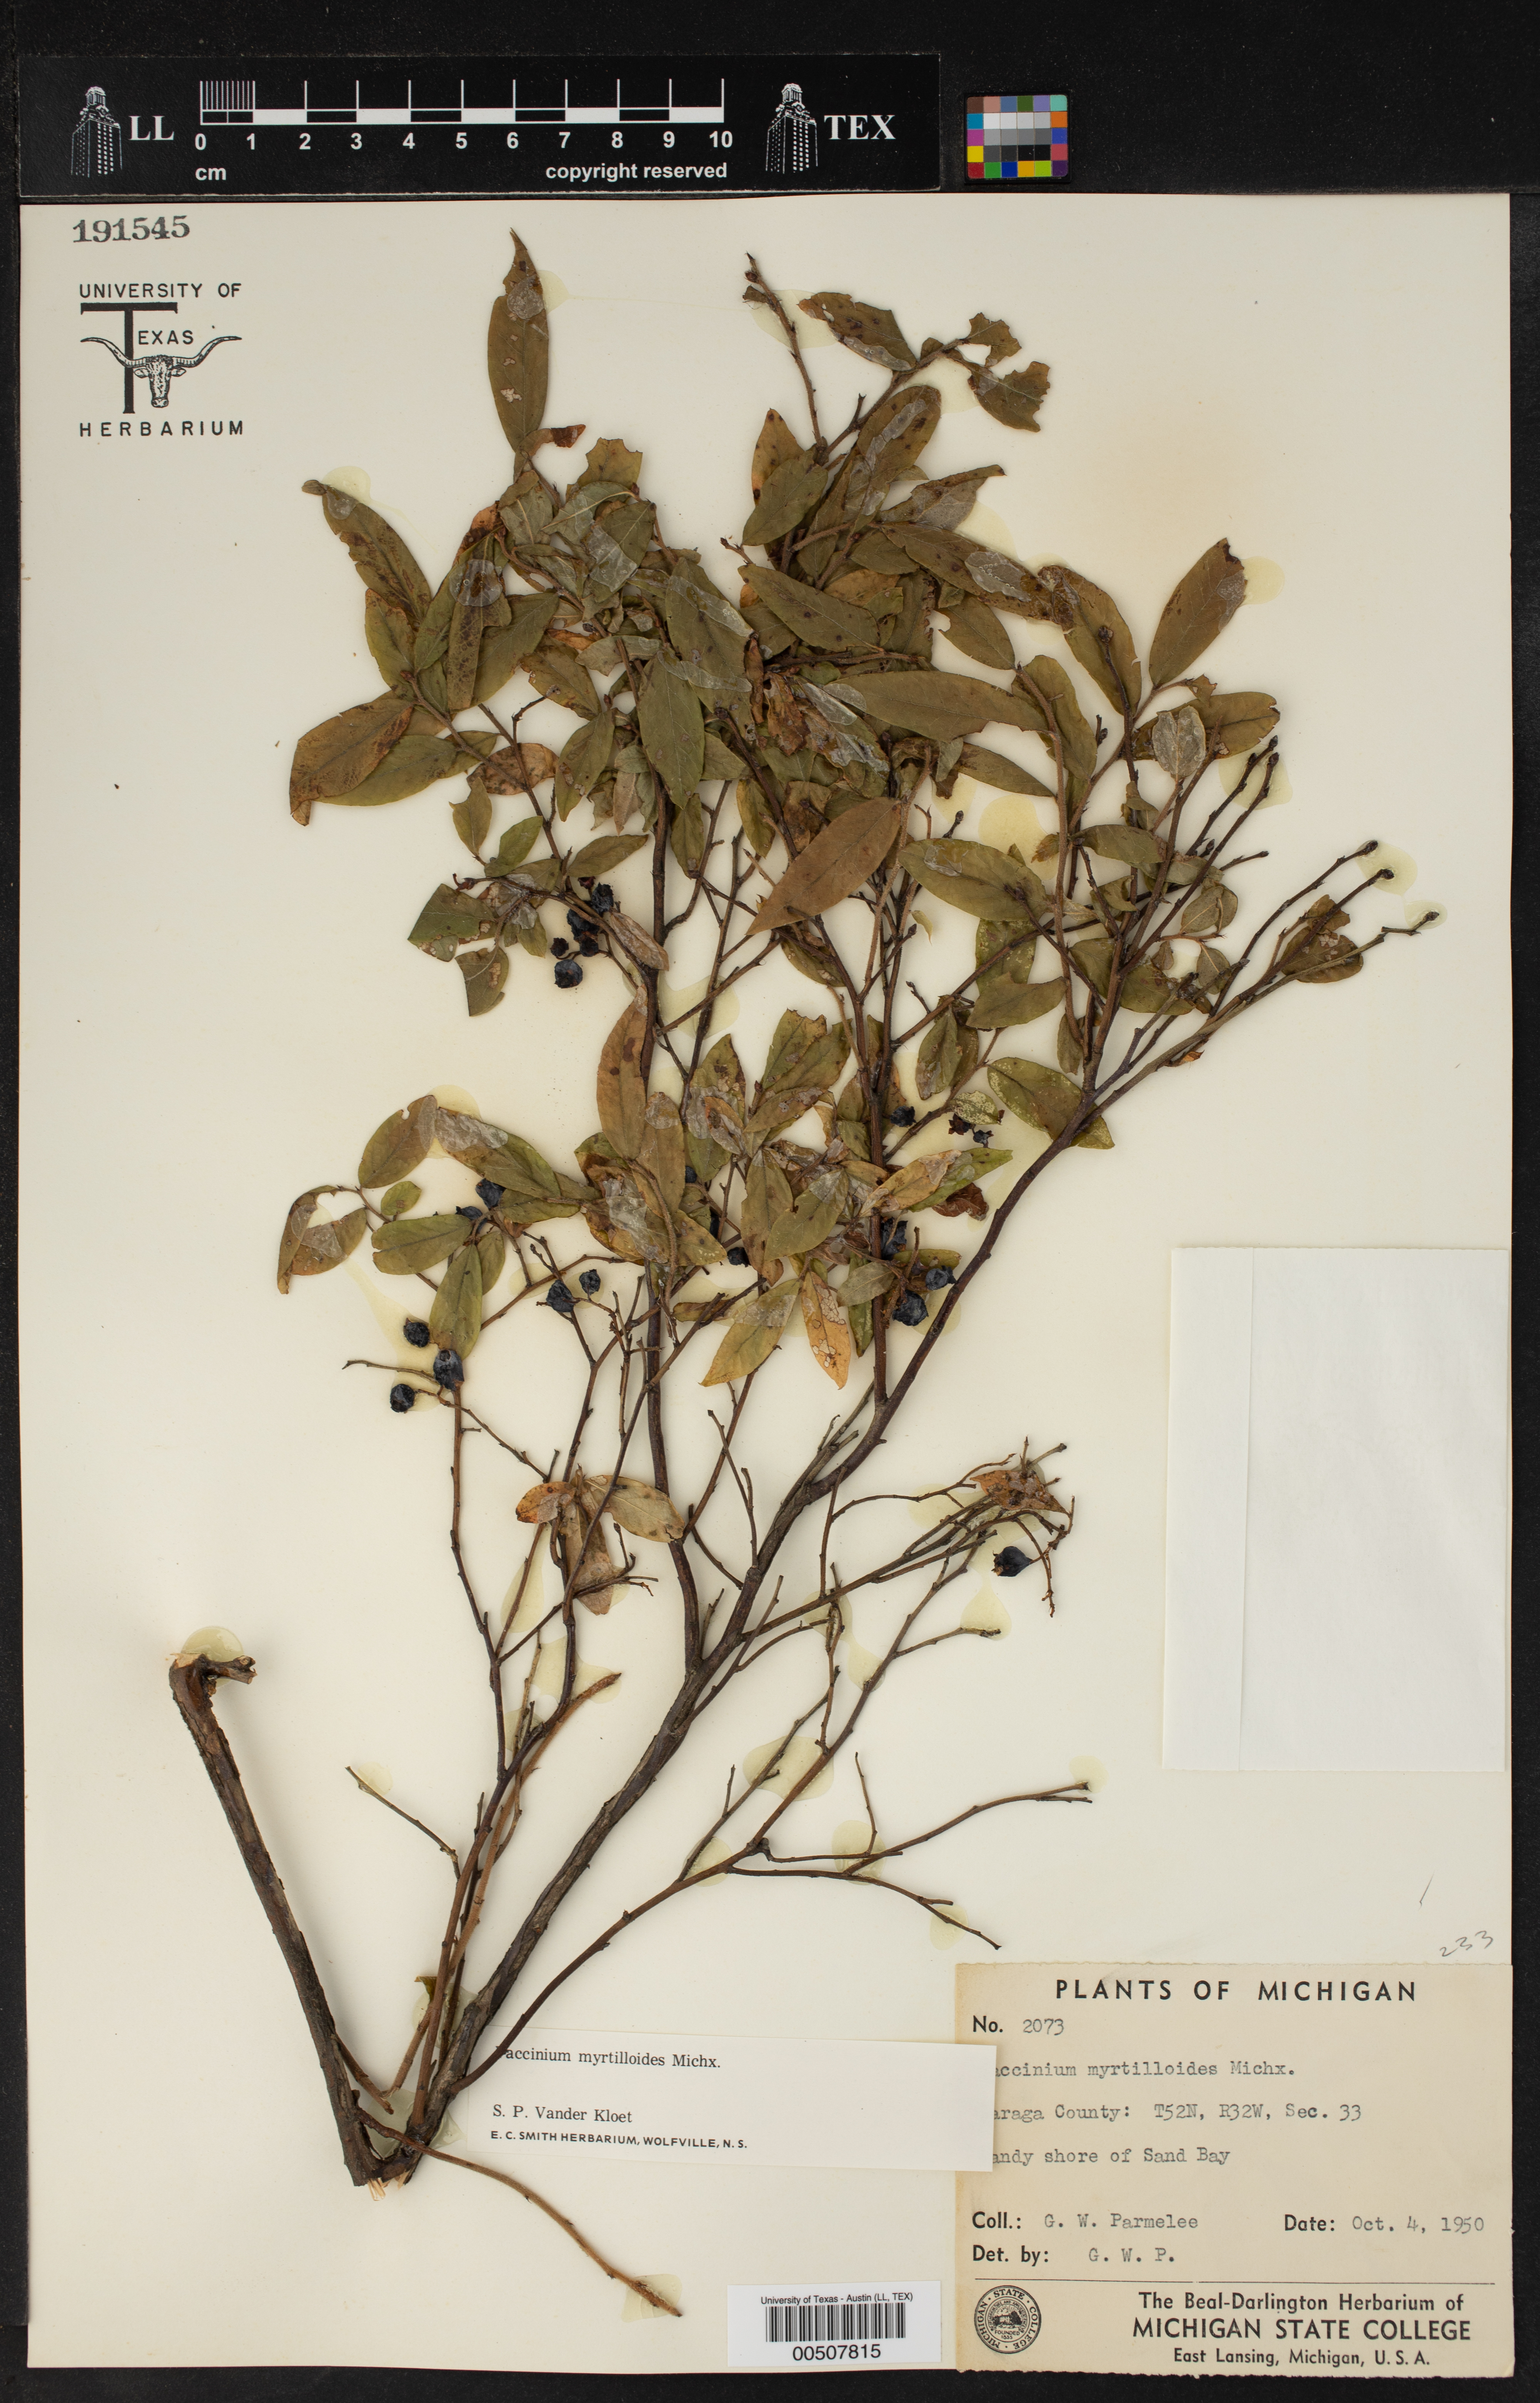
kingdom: Plantae
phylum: Tracheophyta
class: Magnoliopsida
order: Ericales
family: Ericaceae
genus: Vaccinium
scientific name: Vaccinium myrtilloides
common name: Canada blueberry
